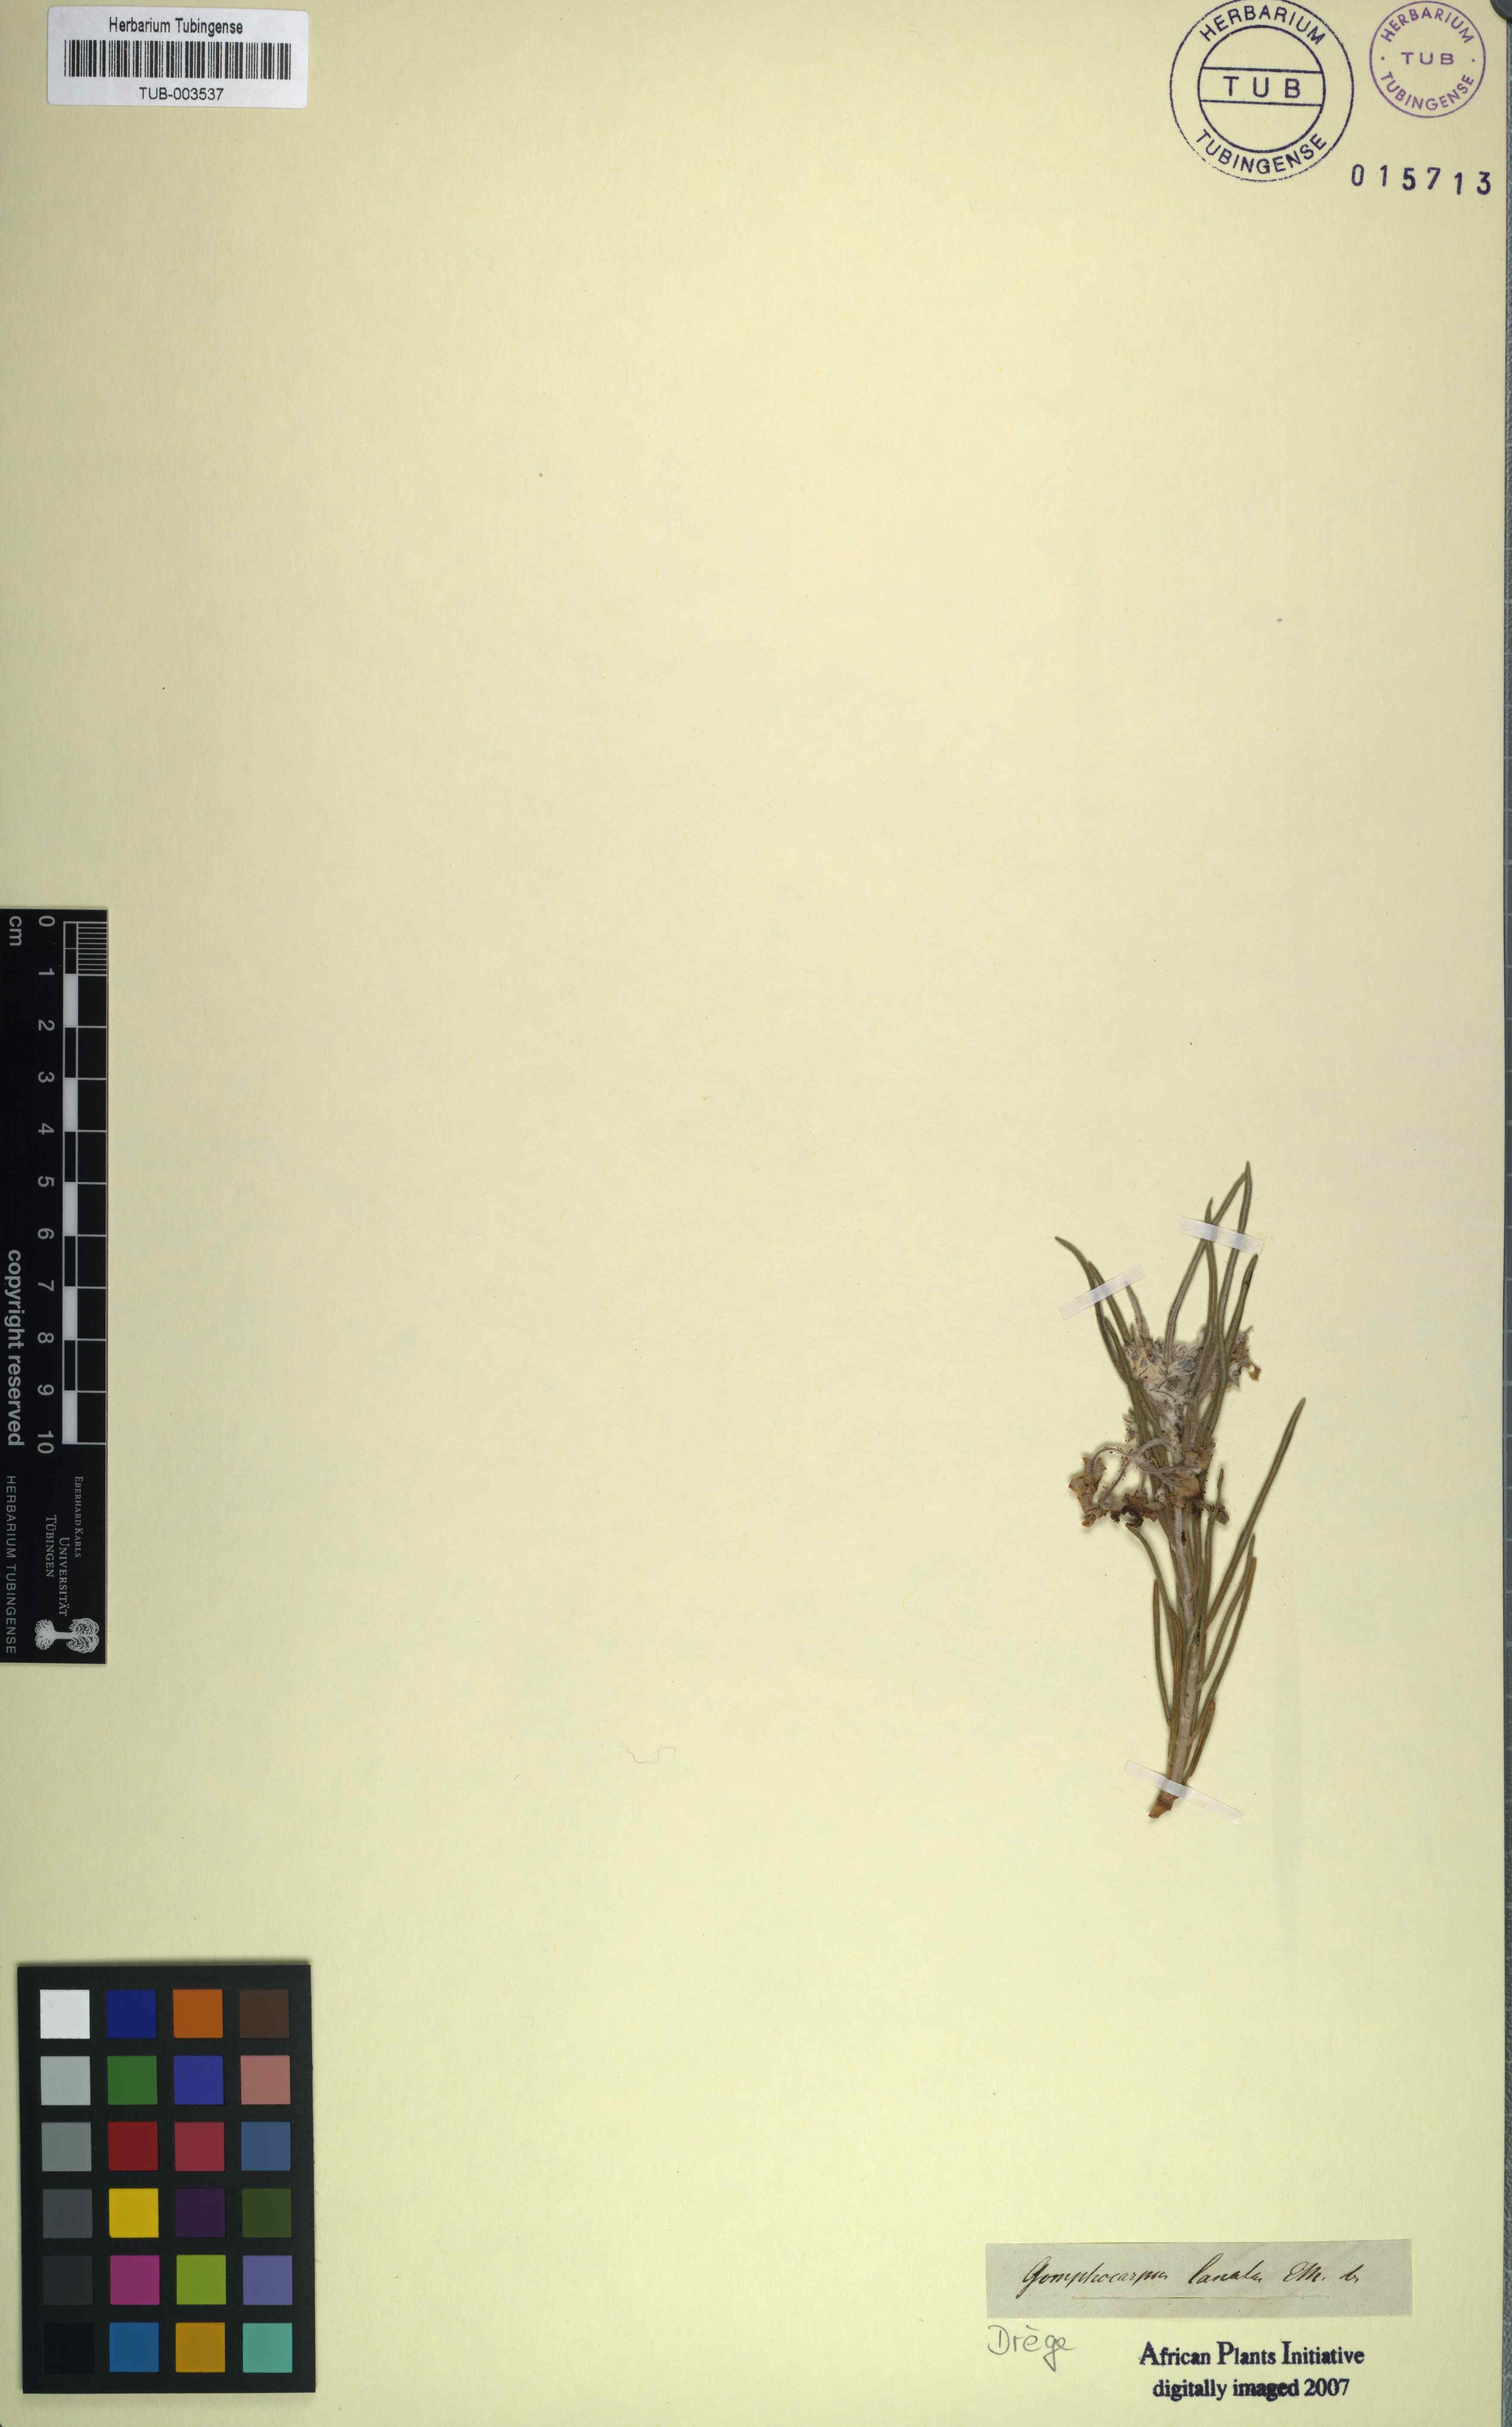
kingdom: Plantae
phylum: Tracheophyta
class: Magnoliopsida
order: Gentianales
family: Apocynaceae
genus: Gomphocarpus
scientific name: Gomphocarpus tomentosus
